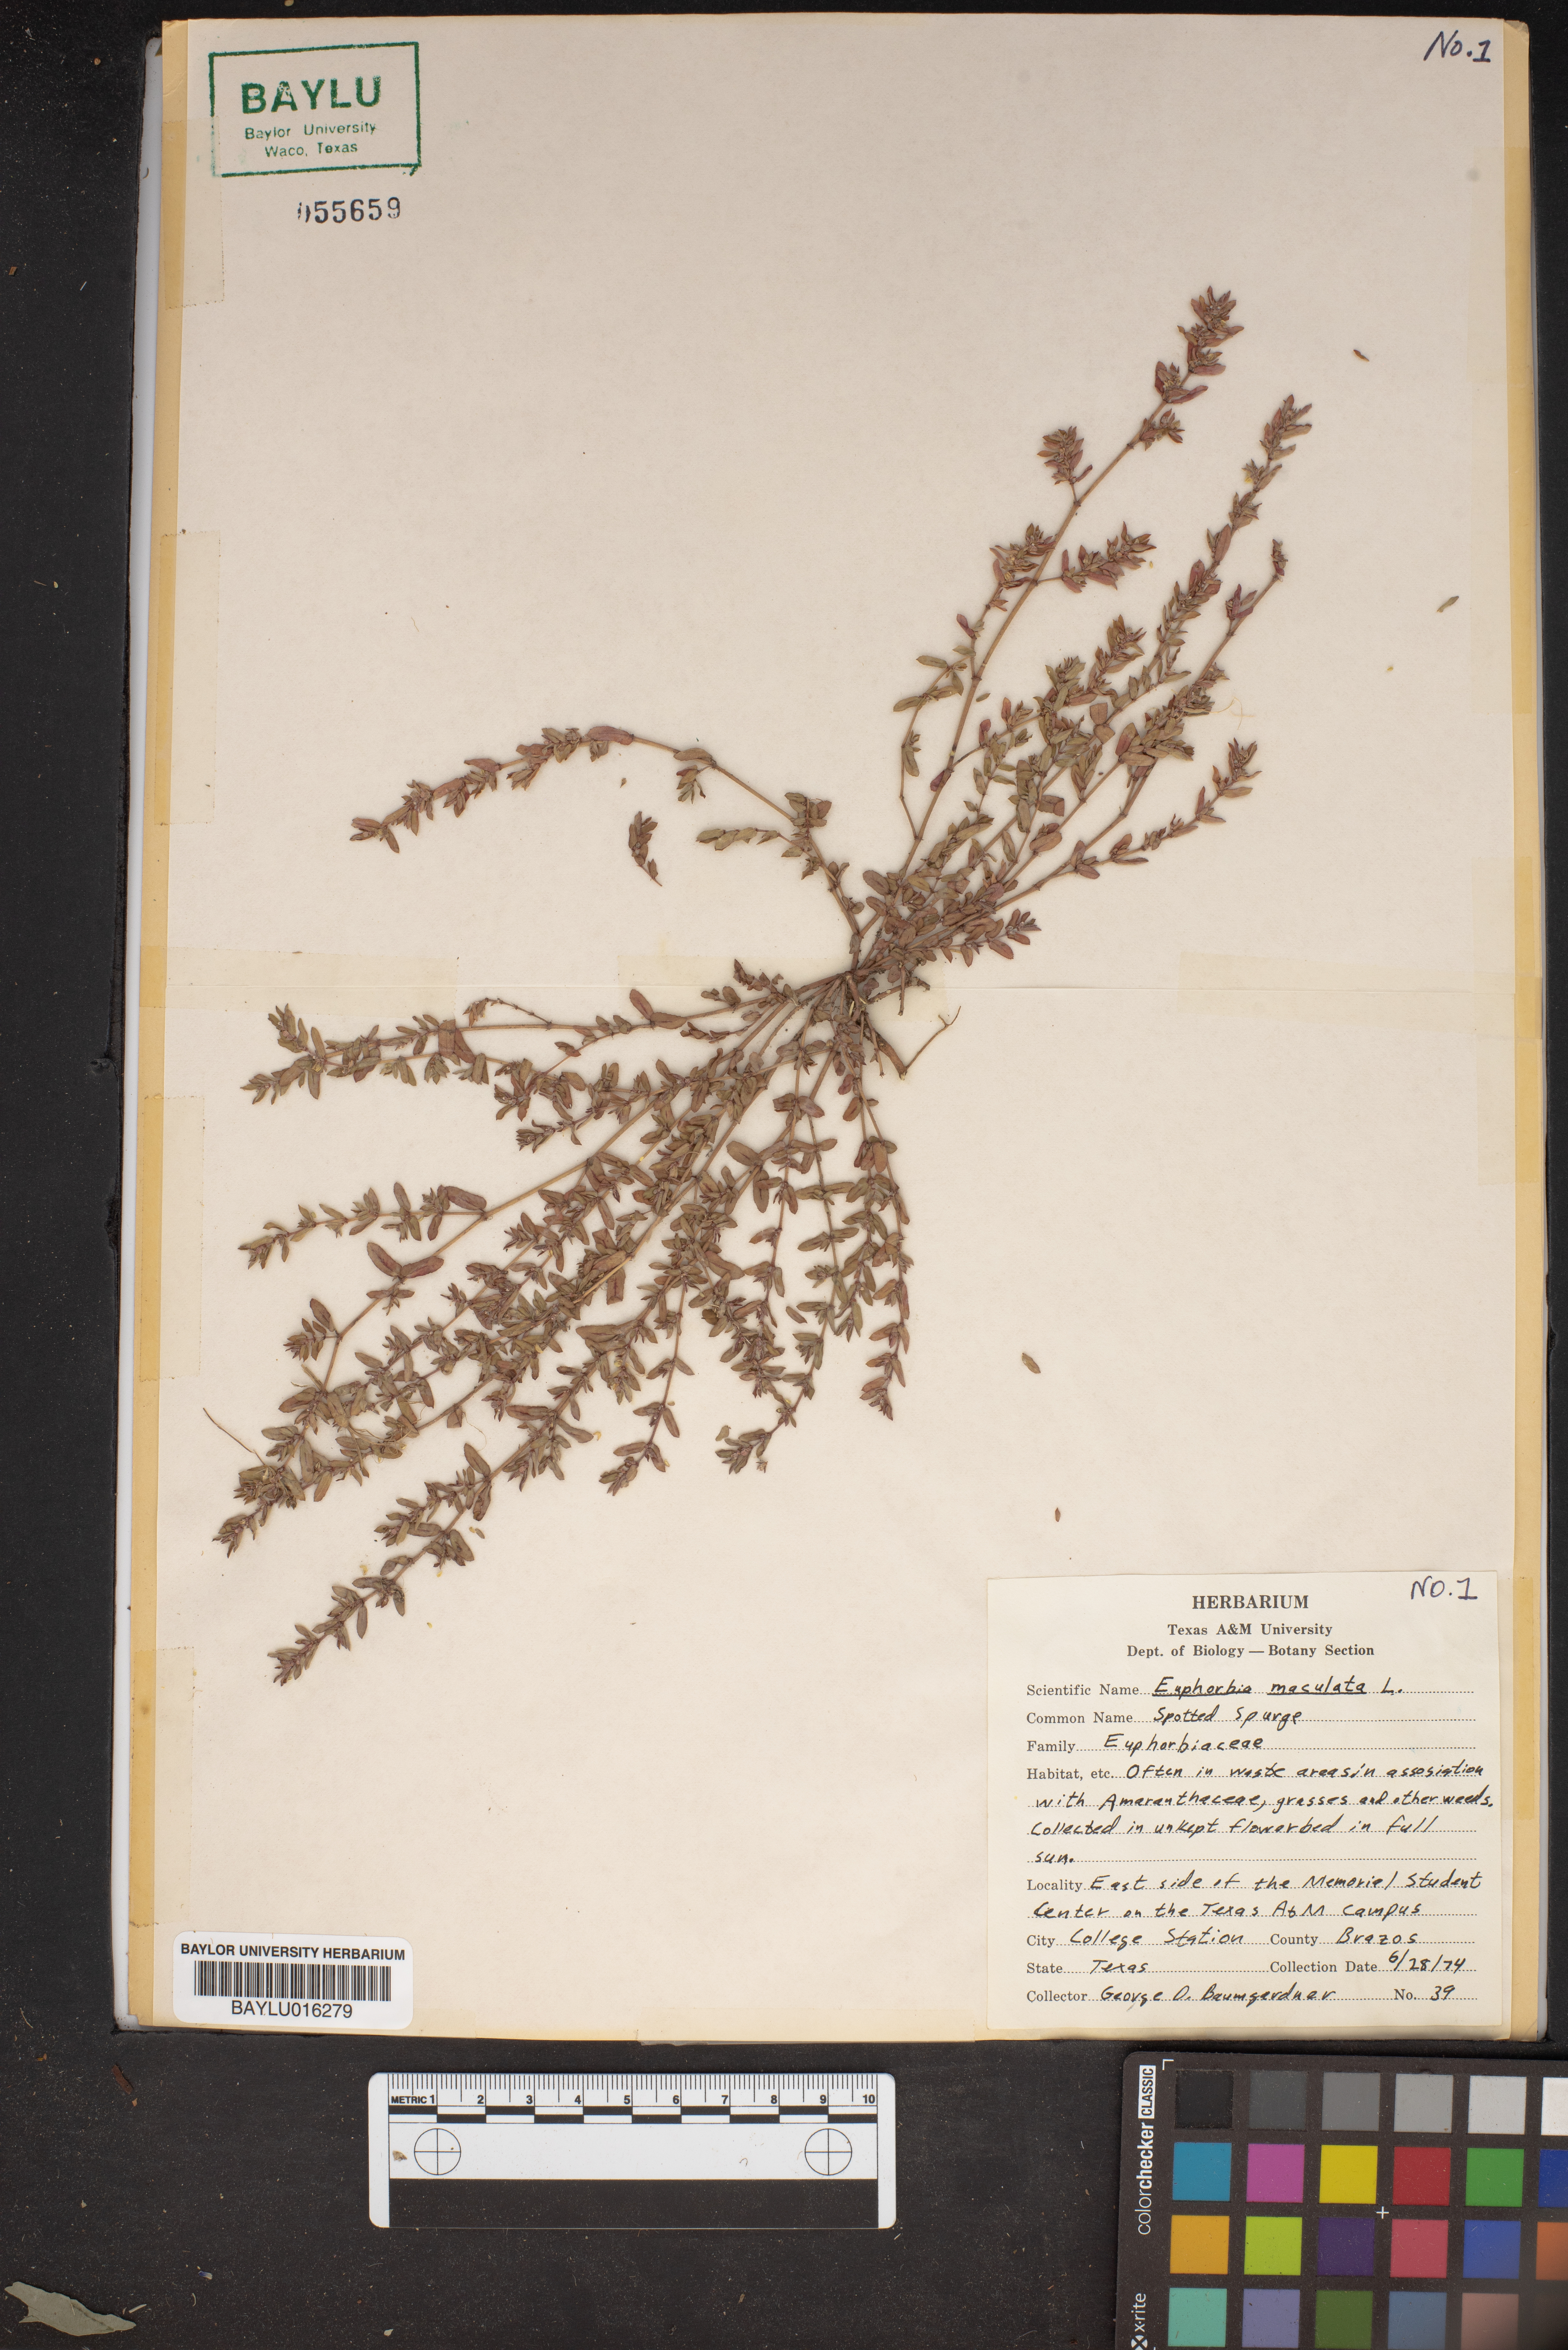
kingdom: Plantae
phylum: Tracheophyta
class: Magnoliopsida
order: Malpighiales
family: Euphorbiaceae
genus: Euphorbia
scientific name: Euphorbia maculata
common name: Spotted spurge
